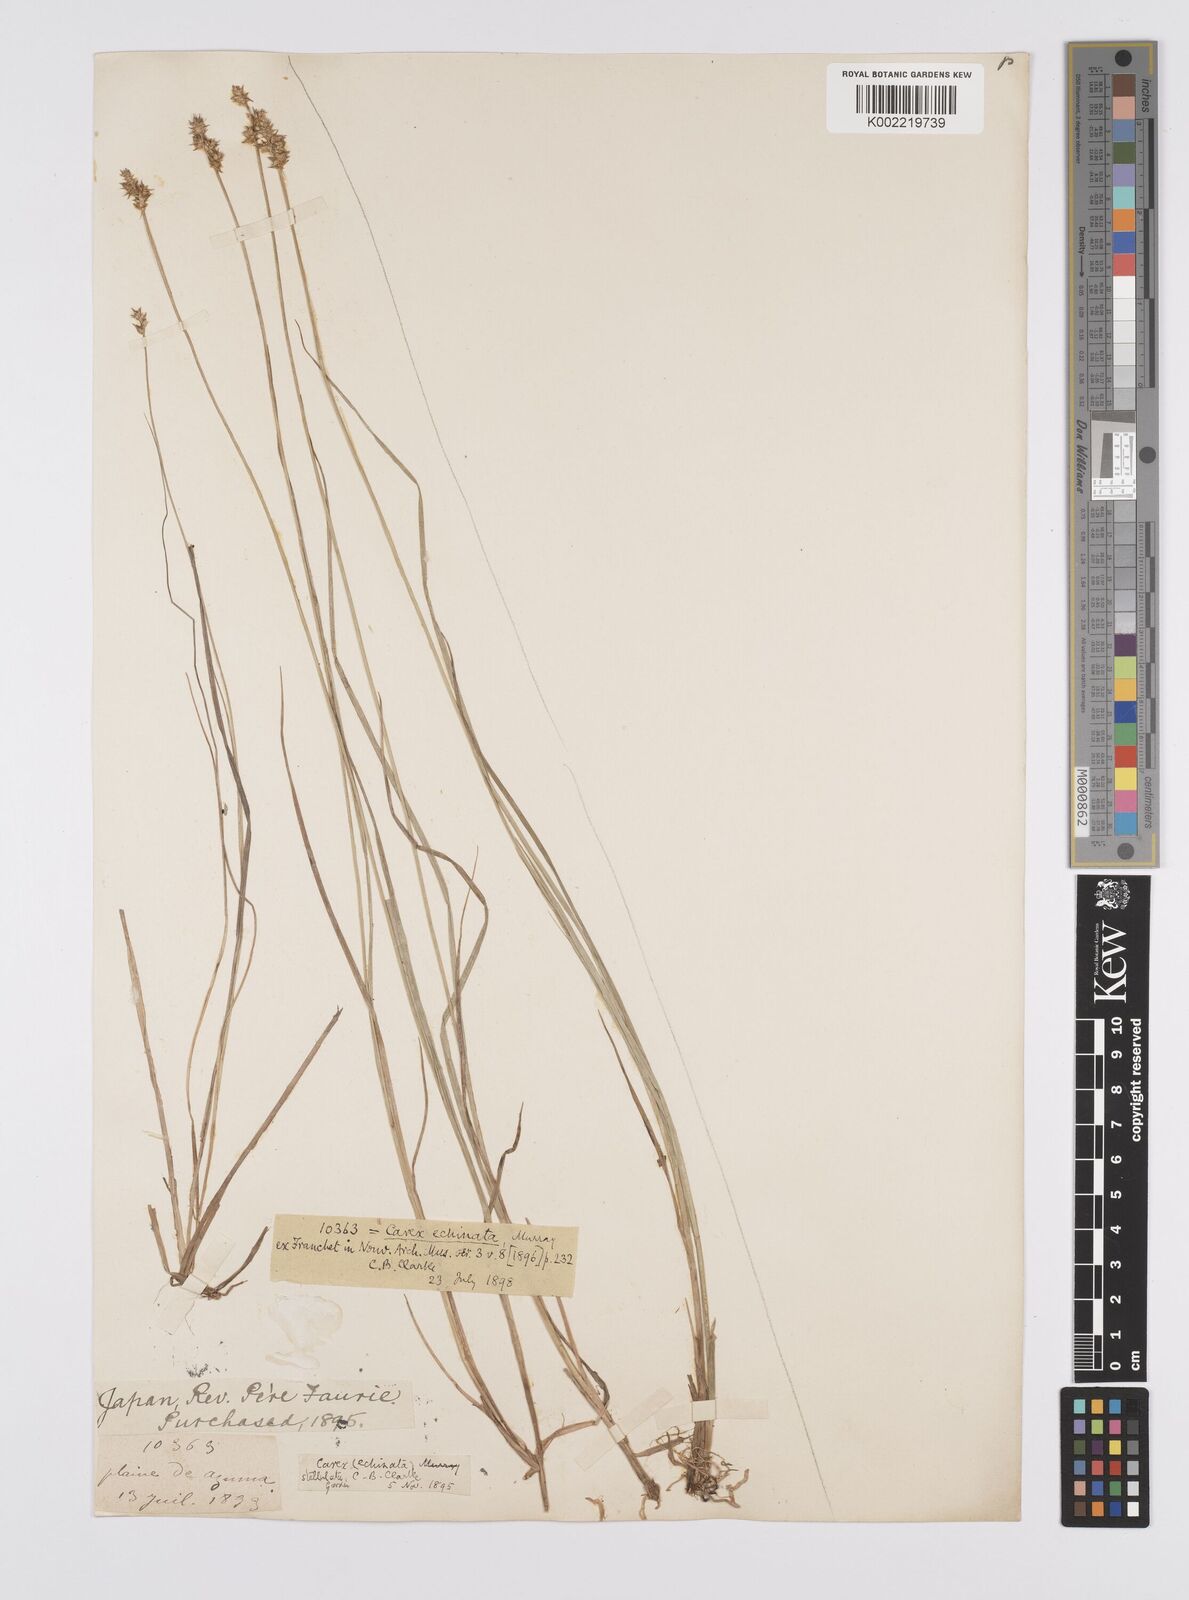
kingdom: Plantae
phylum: Tracheophyta
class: Liliopsida
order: Poales
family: Cyperaceae
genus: Carex
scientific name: Carex echinata
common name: Star sedge
